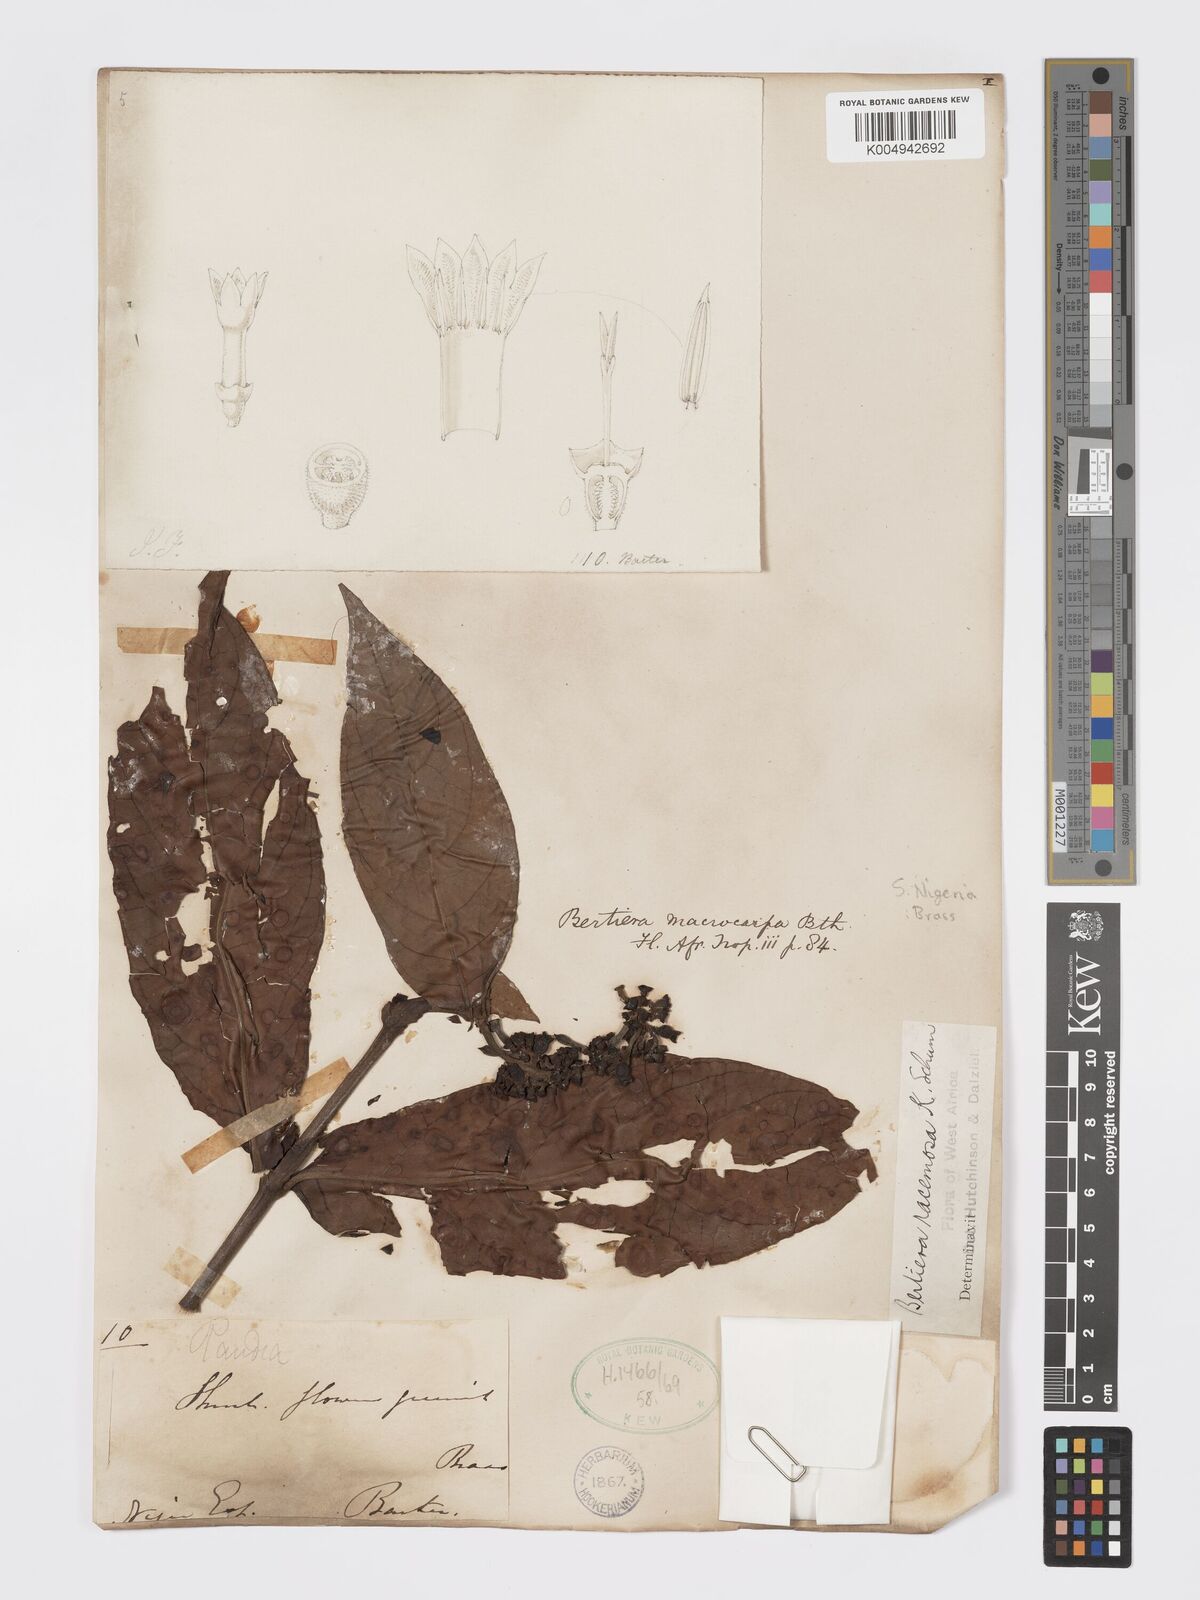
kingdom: Plantae
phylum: Tracheophyta
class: Magnoliopsida
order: Gentianales
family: Rubiaceae
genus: Bertiera
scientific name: Bertiera racemosa
